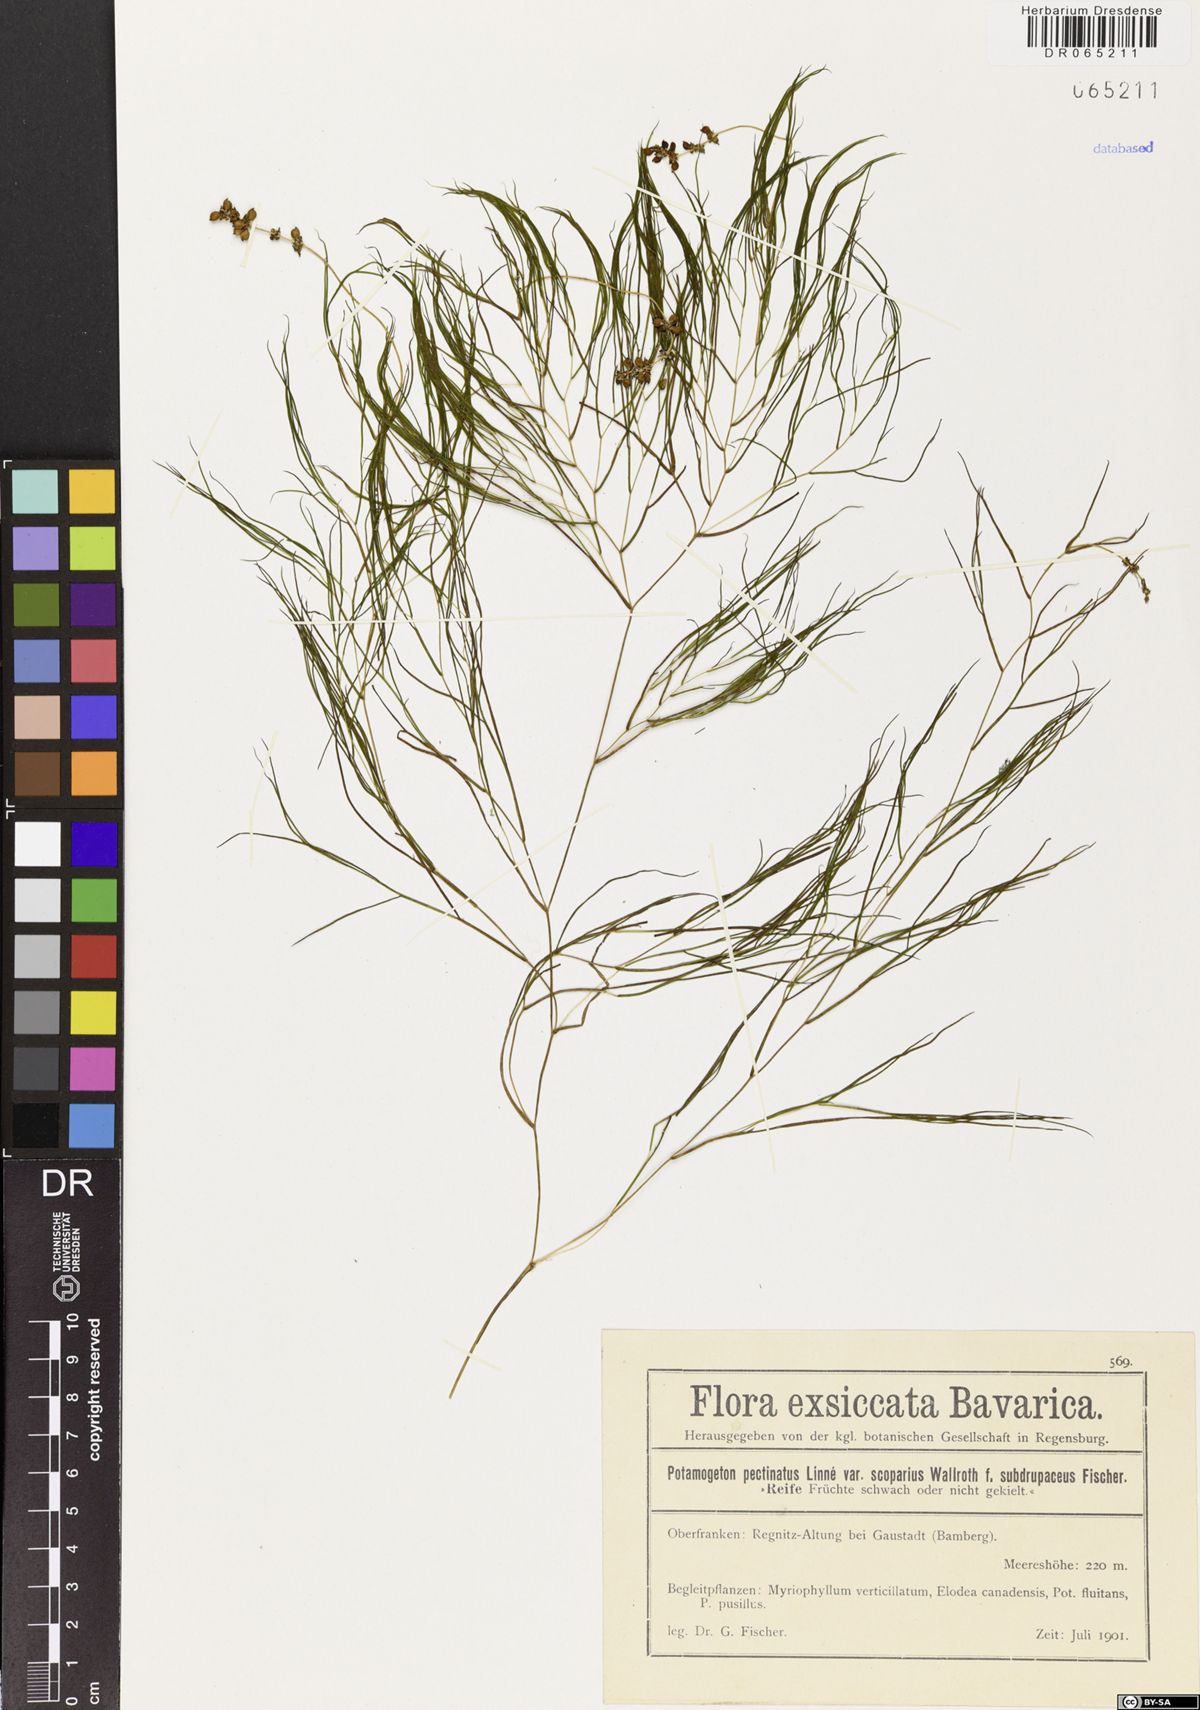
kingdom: Plantae
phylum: Tracheophyta
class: Liliopsida
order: Alismatales
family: Potamogetonaceae
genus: Stuckenia
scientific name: Stuckenia pectinata
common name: Sago pondweed
